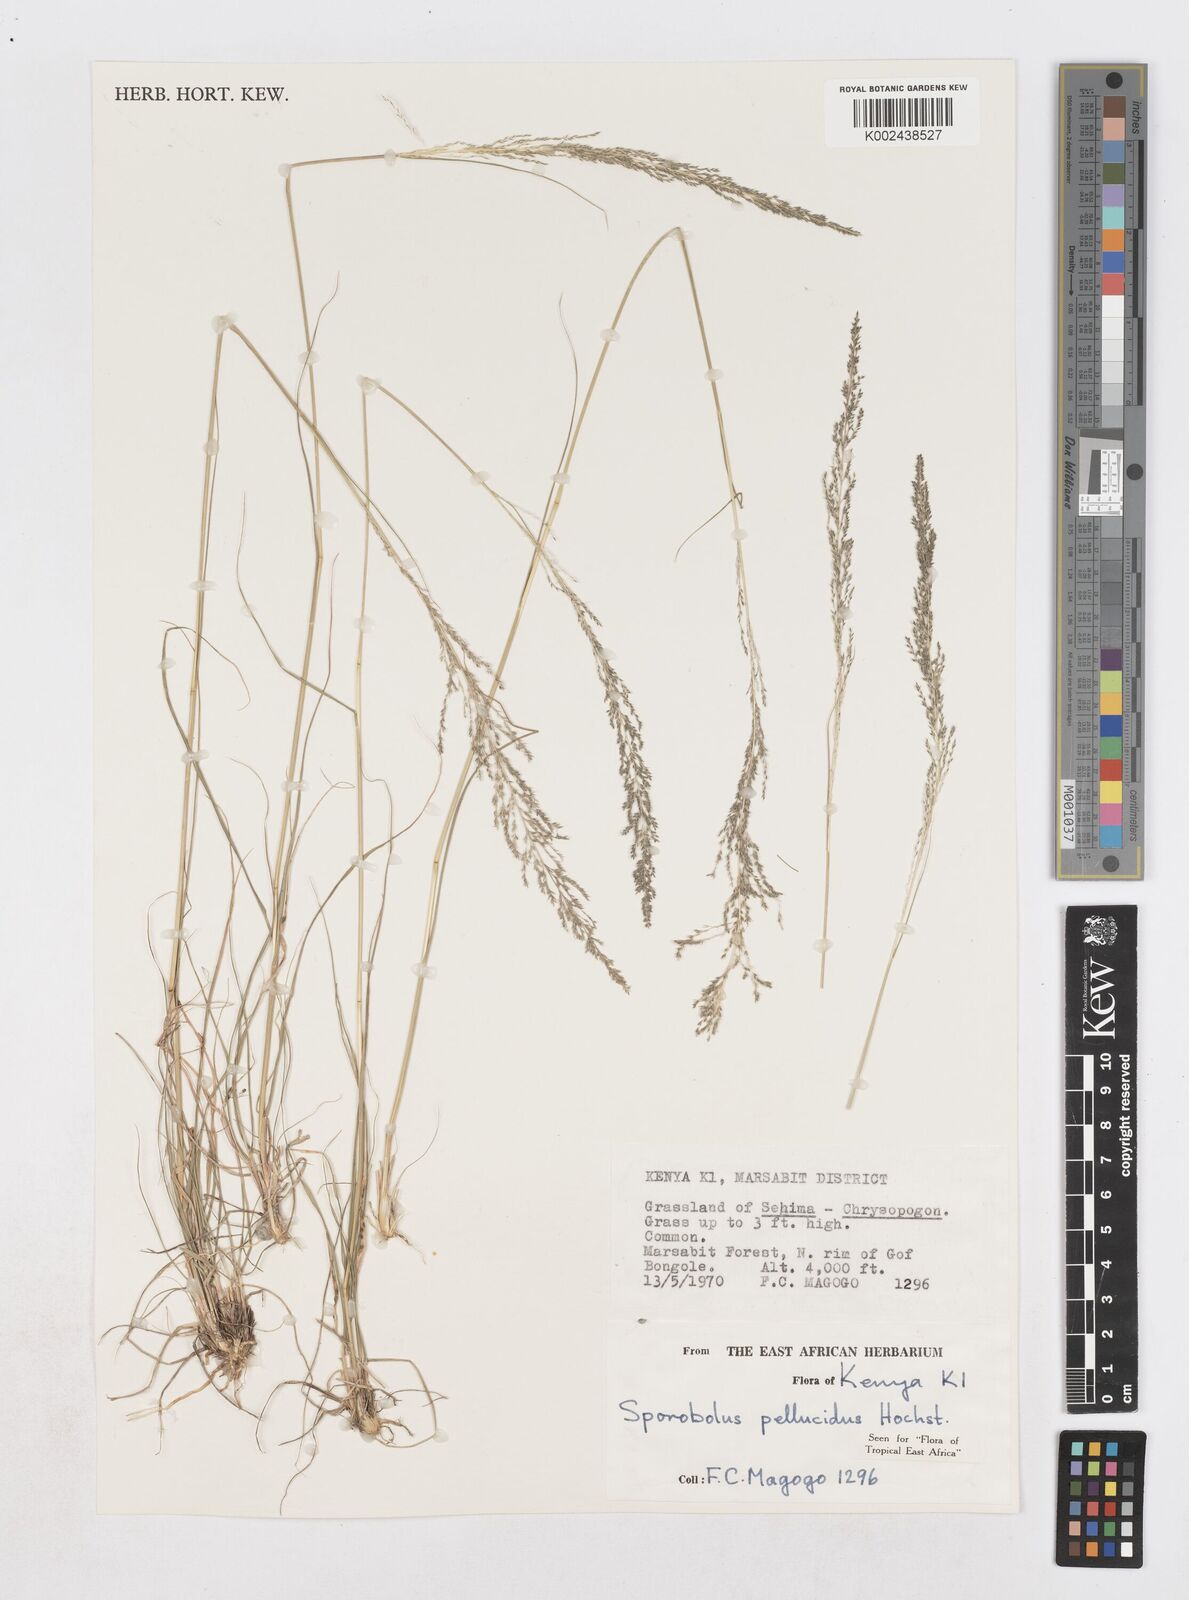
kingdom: Plantae
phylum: Tracheophyta
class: Liliopsida
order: Poales
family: Poaceae
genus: Sporobolus
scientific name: Sporobolus pellucidus
